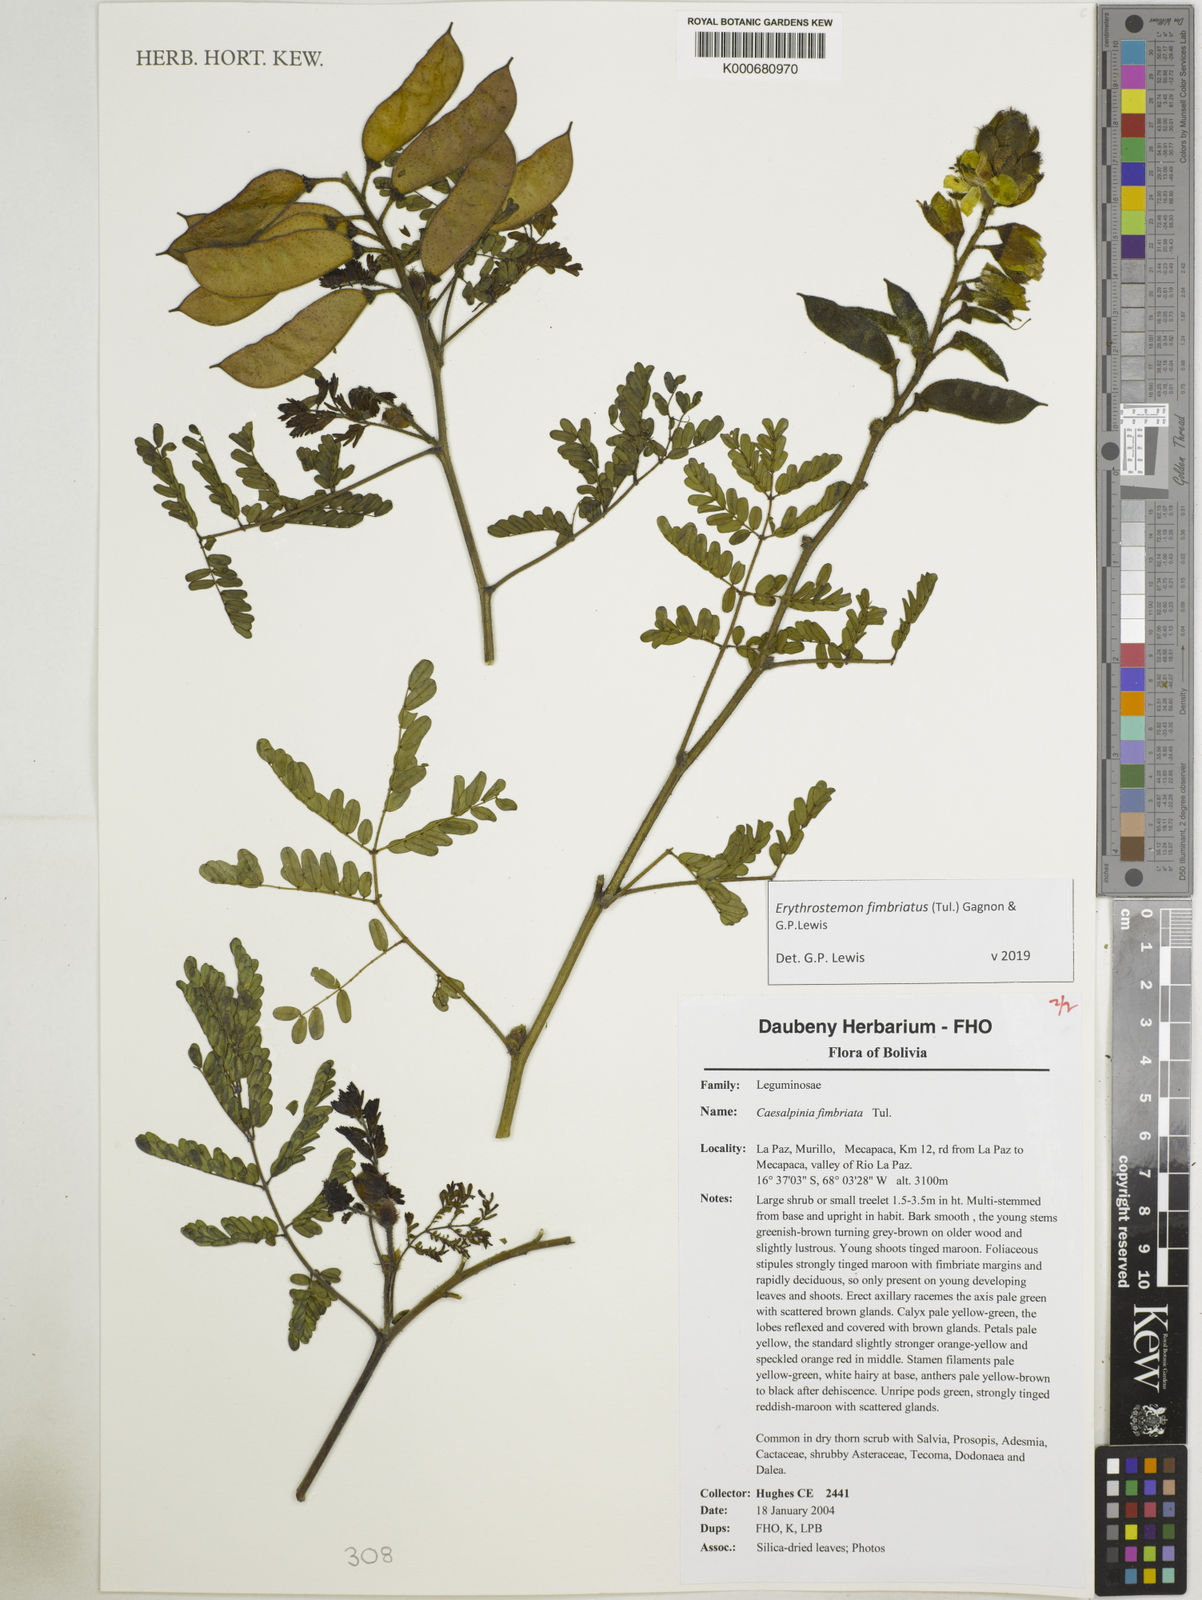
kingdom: Plantae
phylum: Tracheophyta
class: Magnoliopsida
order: Fabales
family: Fabaceae
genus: Erythrostemon
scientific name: Erythrostemon fimbriatus
